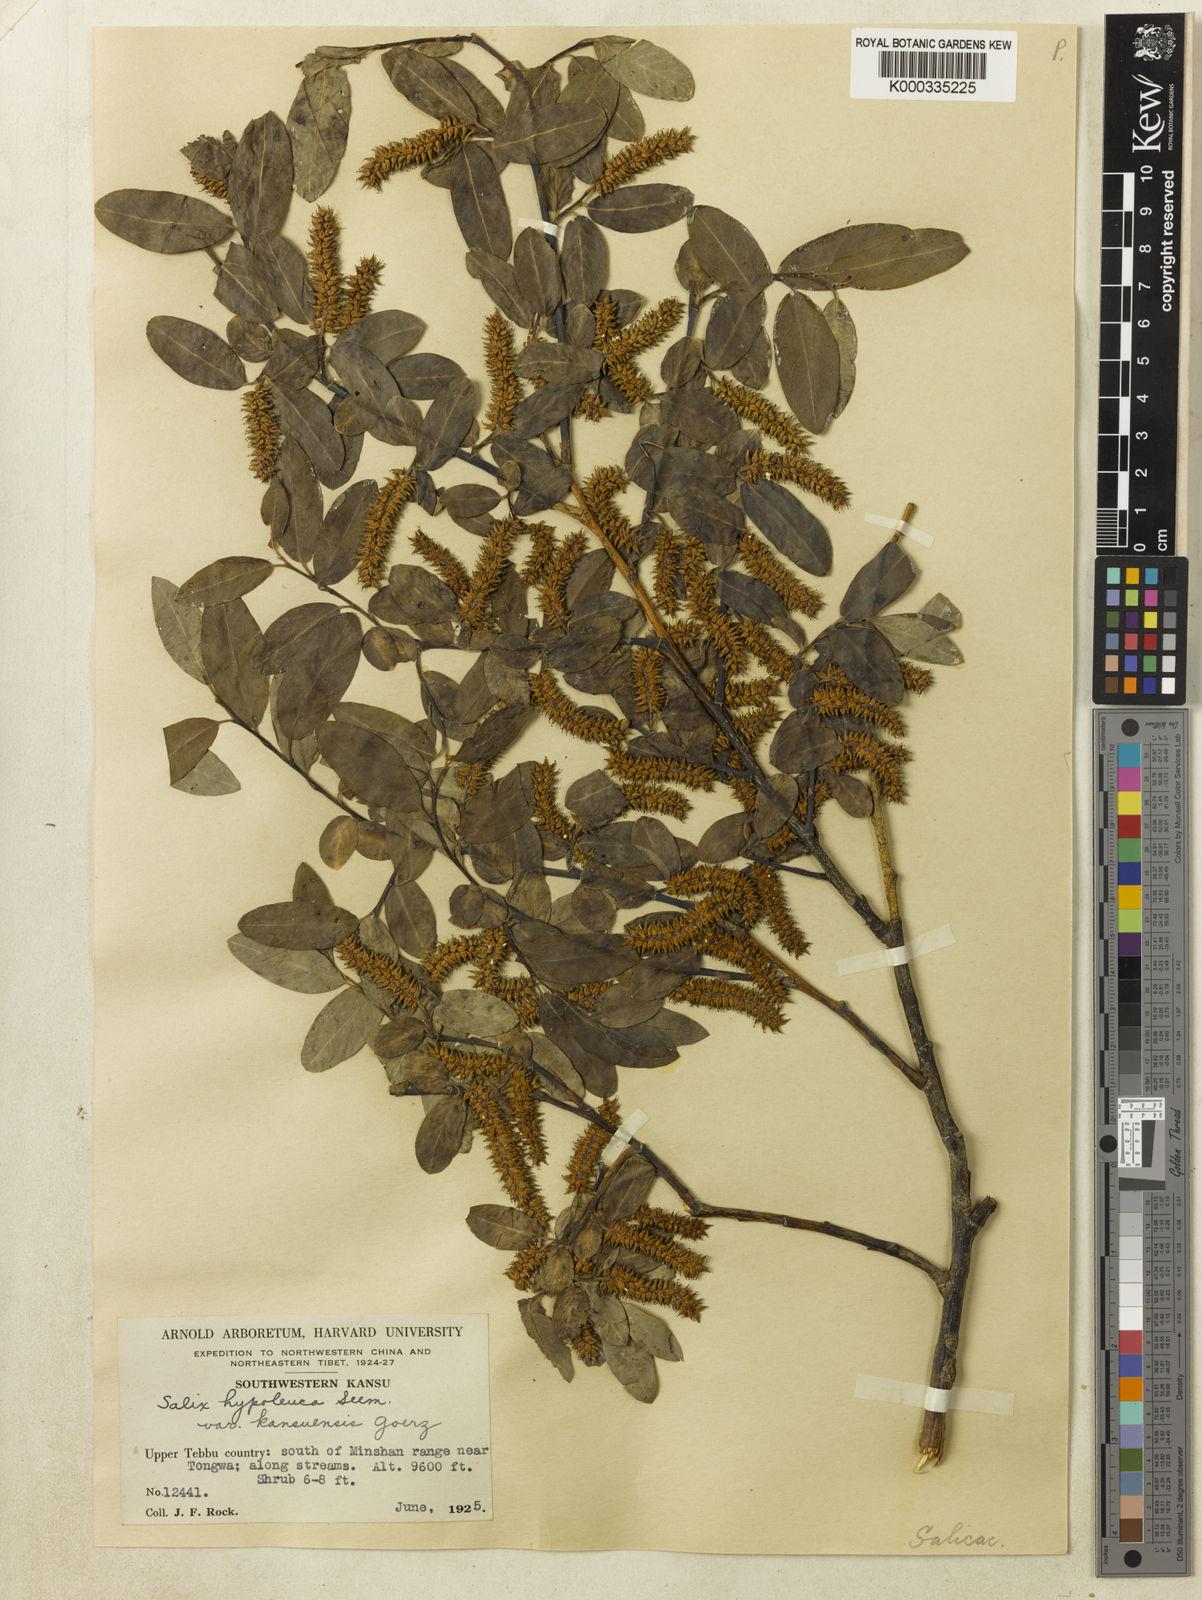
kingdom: Plantae
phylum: Tracheophyta
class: Magnoliopsida
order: Malpighiales
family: Salicaceae
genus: Salix
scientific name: Salix
